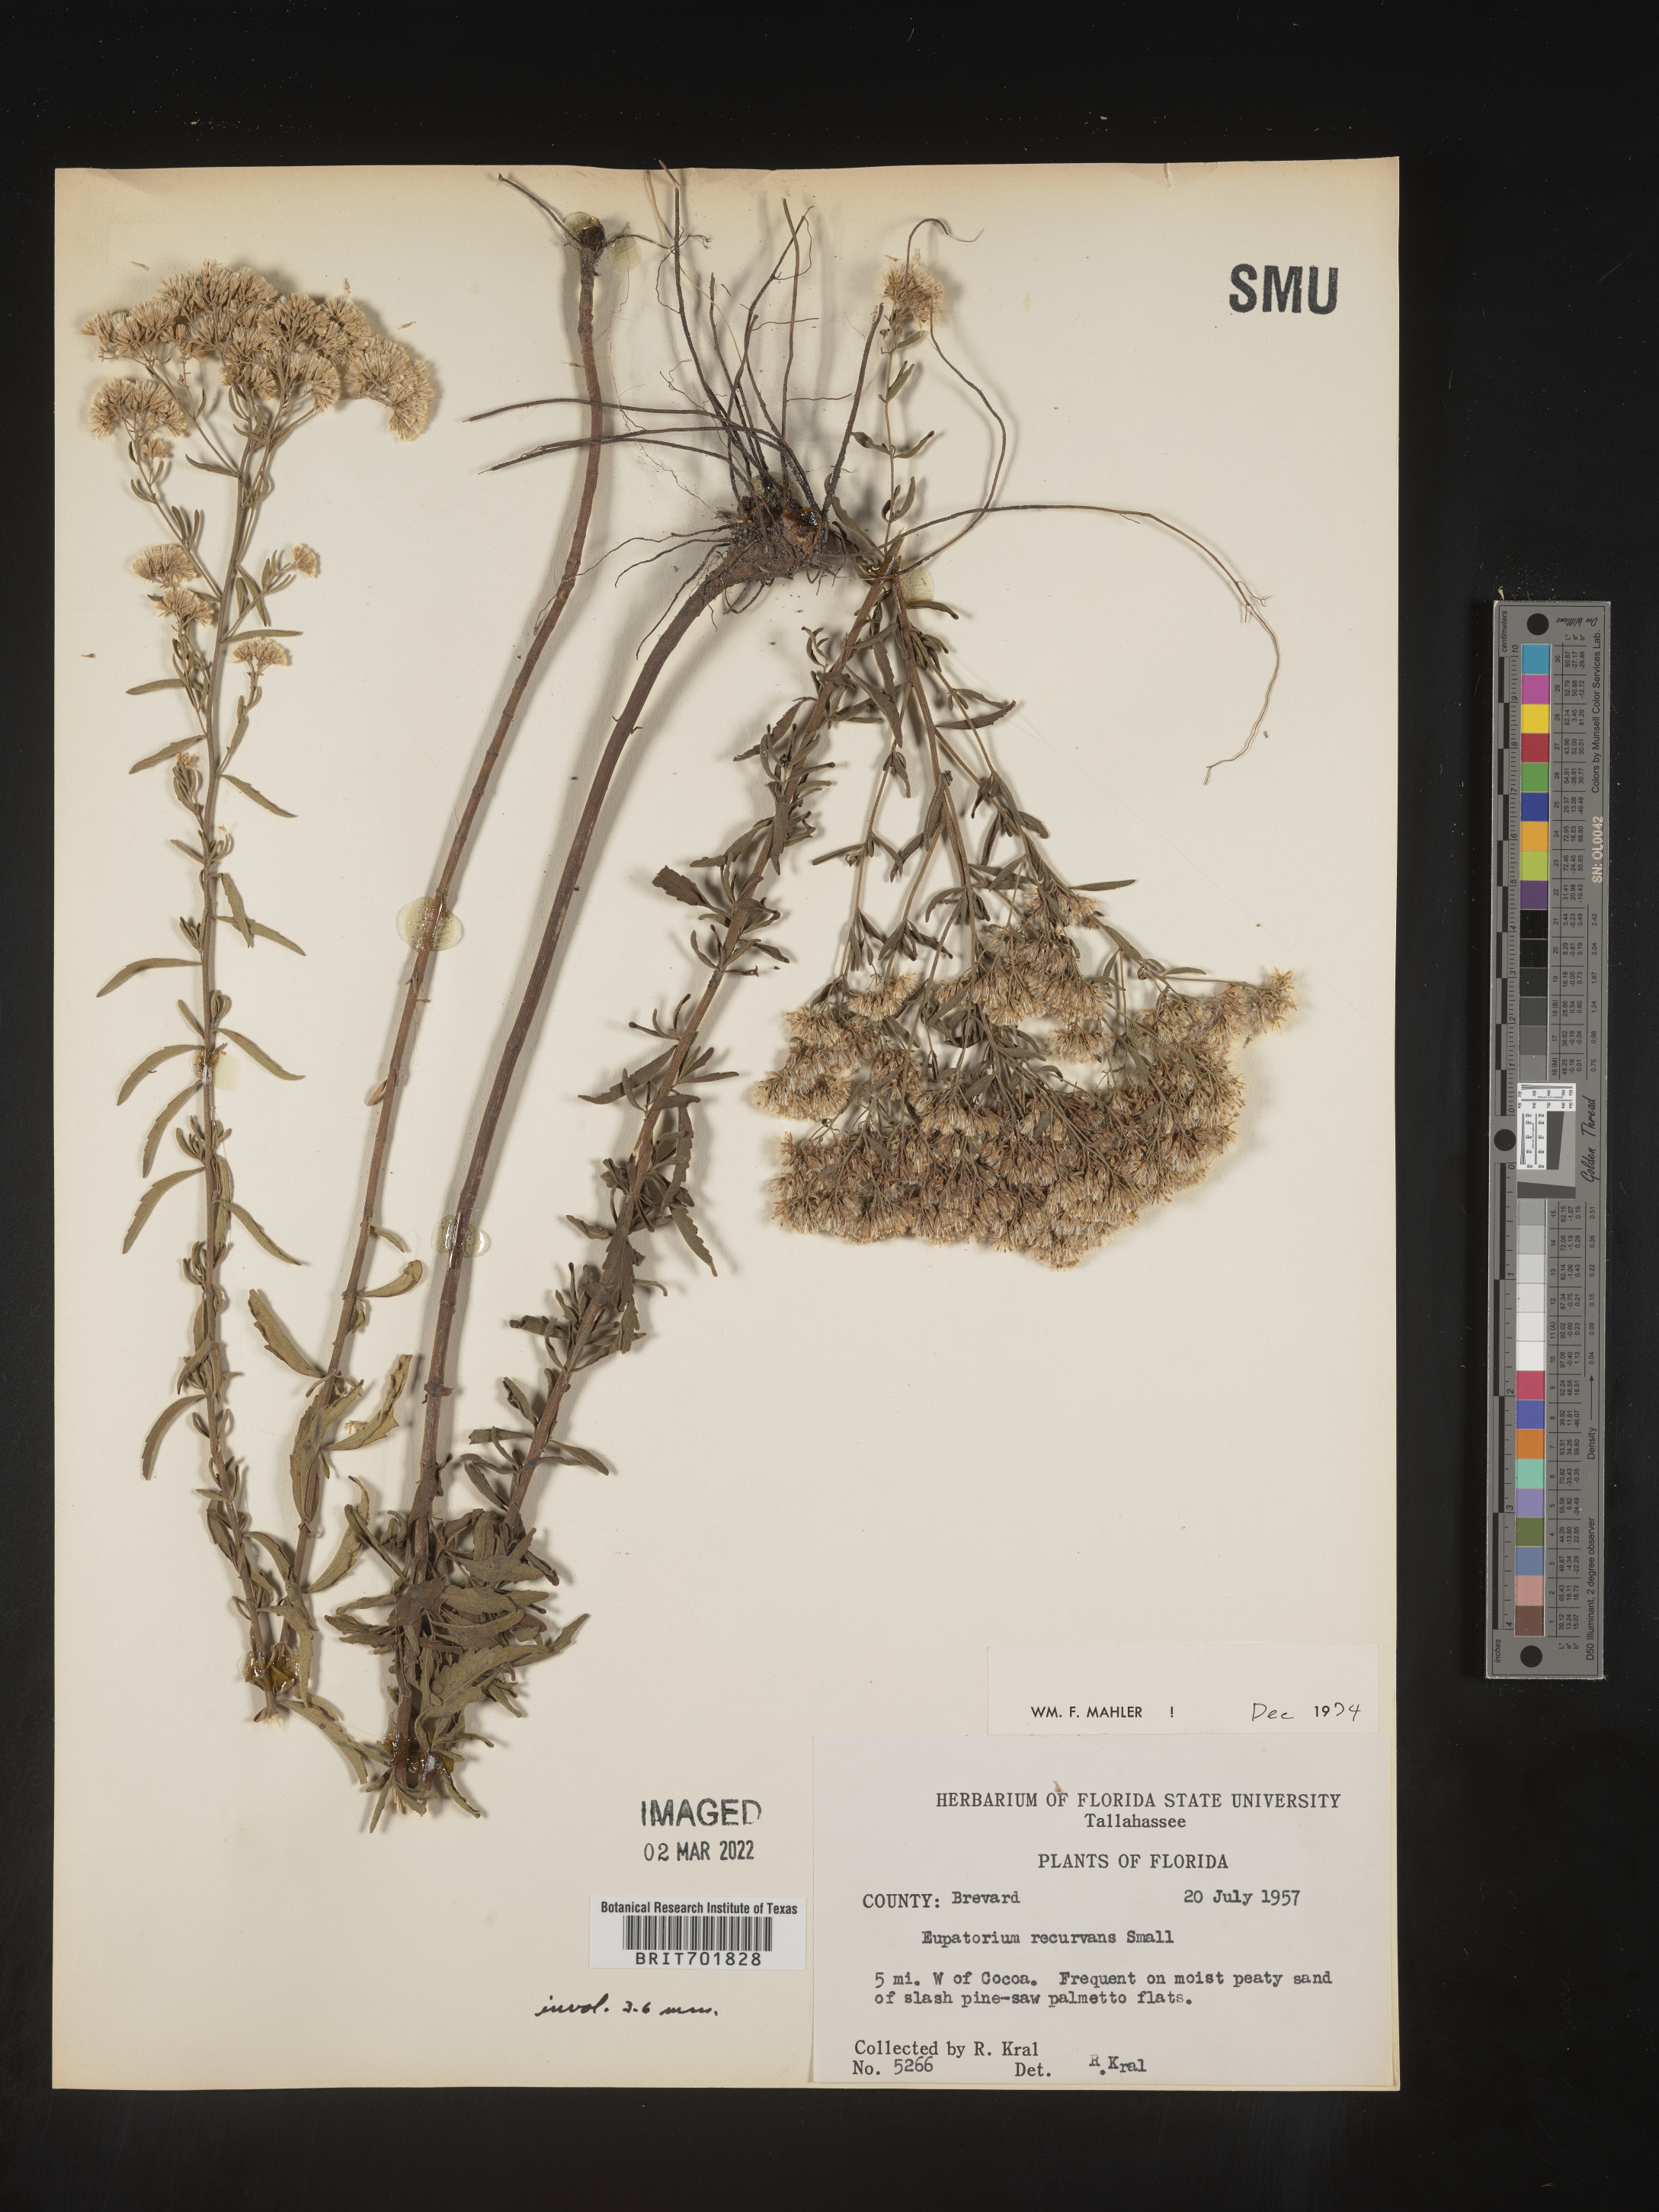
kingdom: Plantae
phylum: Tracheophyta
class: Magnoliopsida
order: Asterales
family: Asteraceae
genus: Eupatorium
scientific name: Eupatorium mohrii
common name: Mohr's thoroughwort
